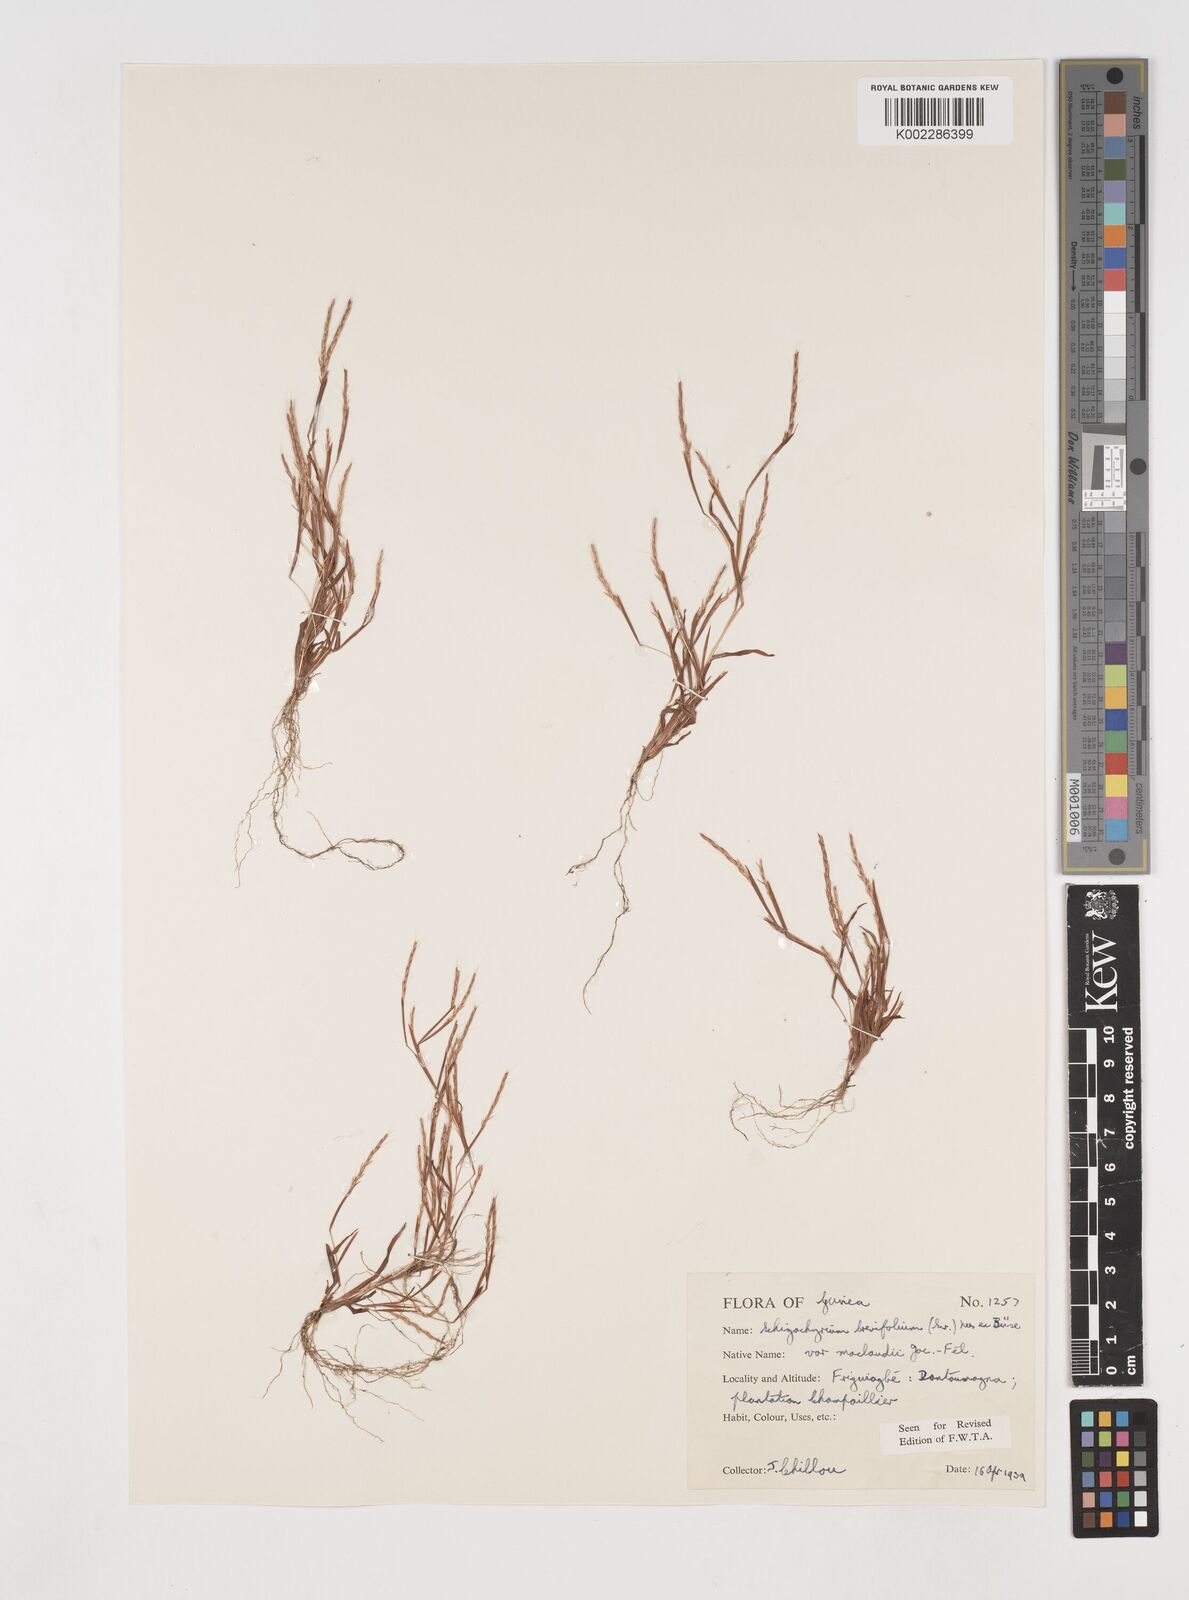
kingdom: Plantae
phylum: Tracheophyta
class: Liliopsida
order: Poales
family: Poaceae
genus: Schizachyrium
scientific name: Schizachyrium maclaudii
